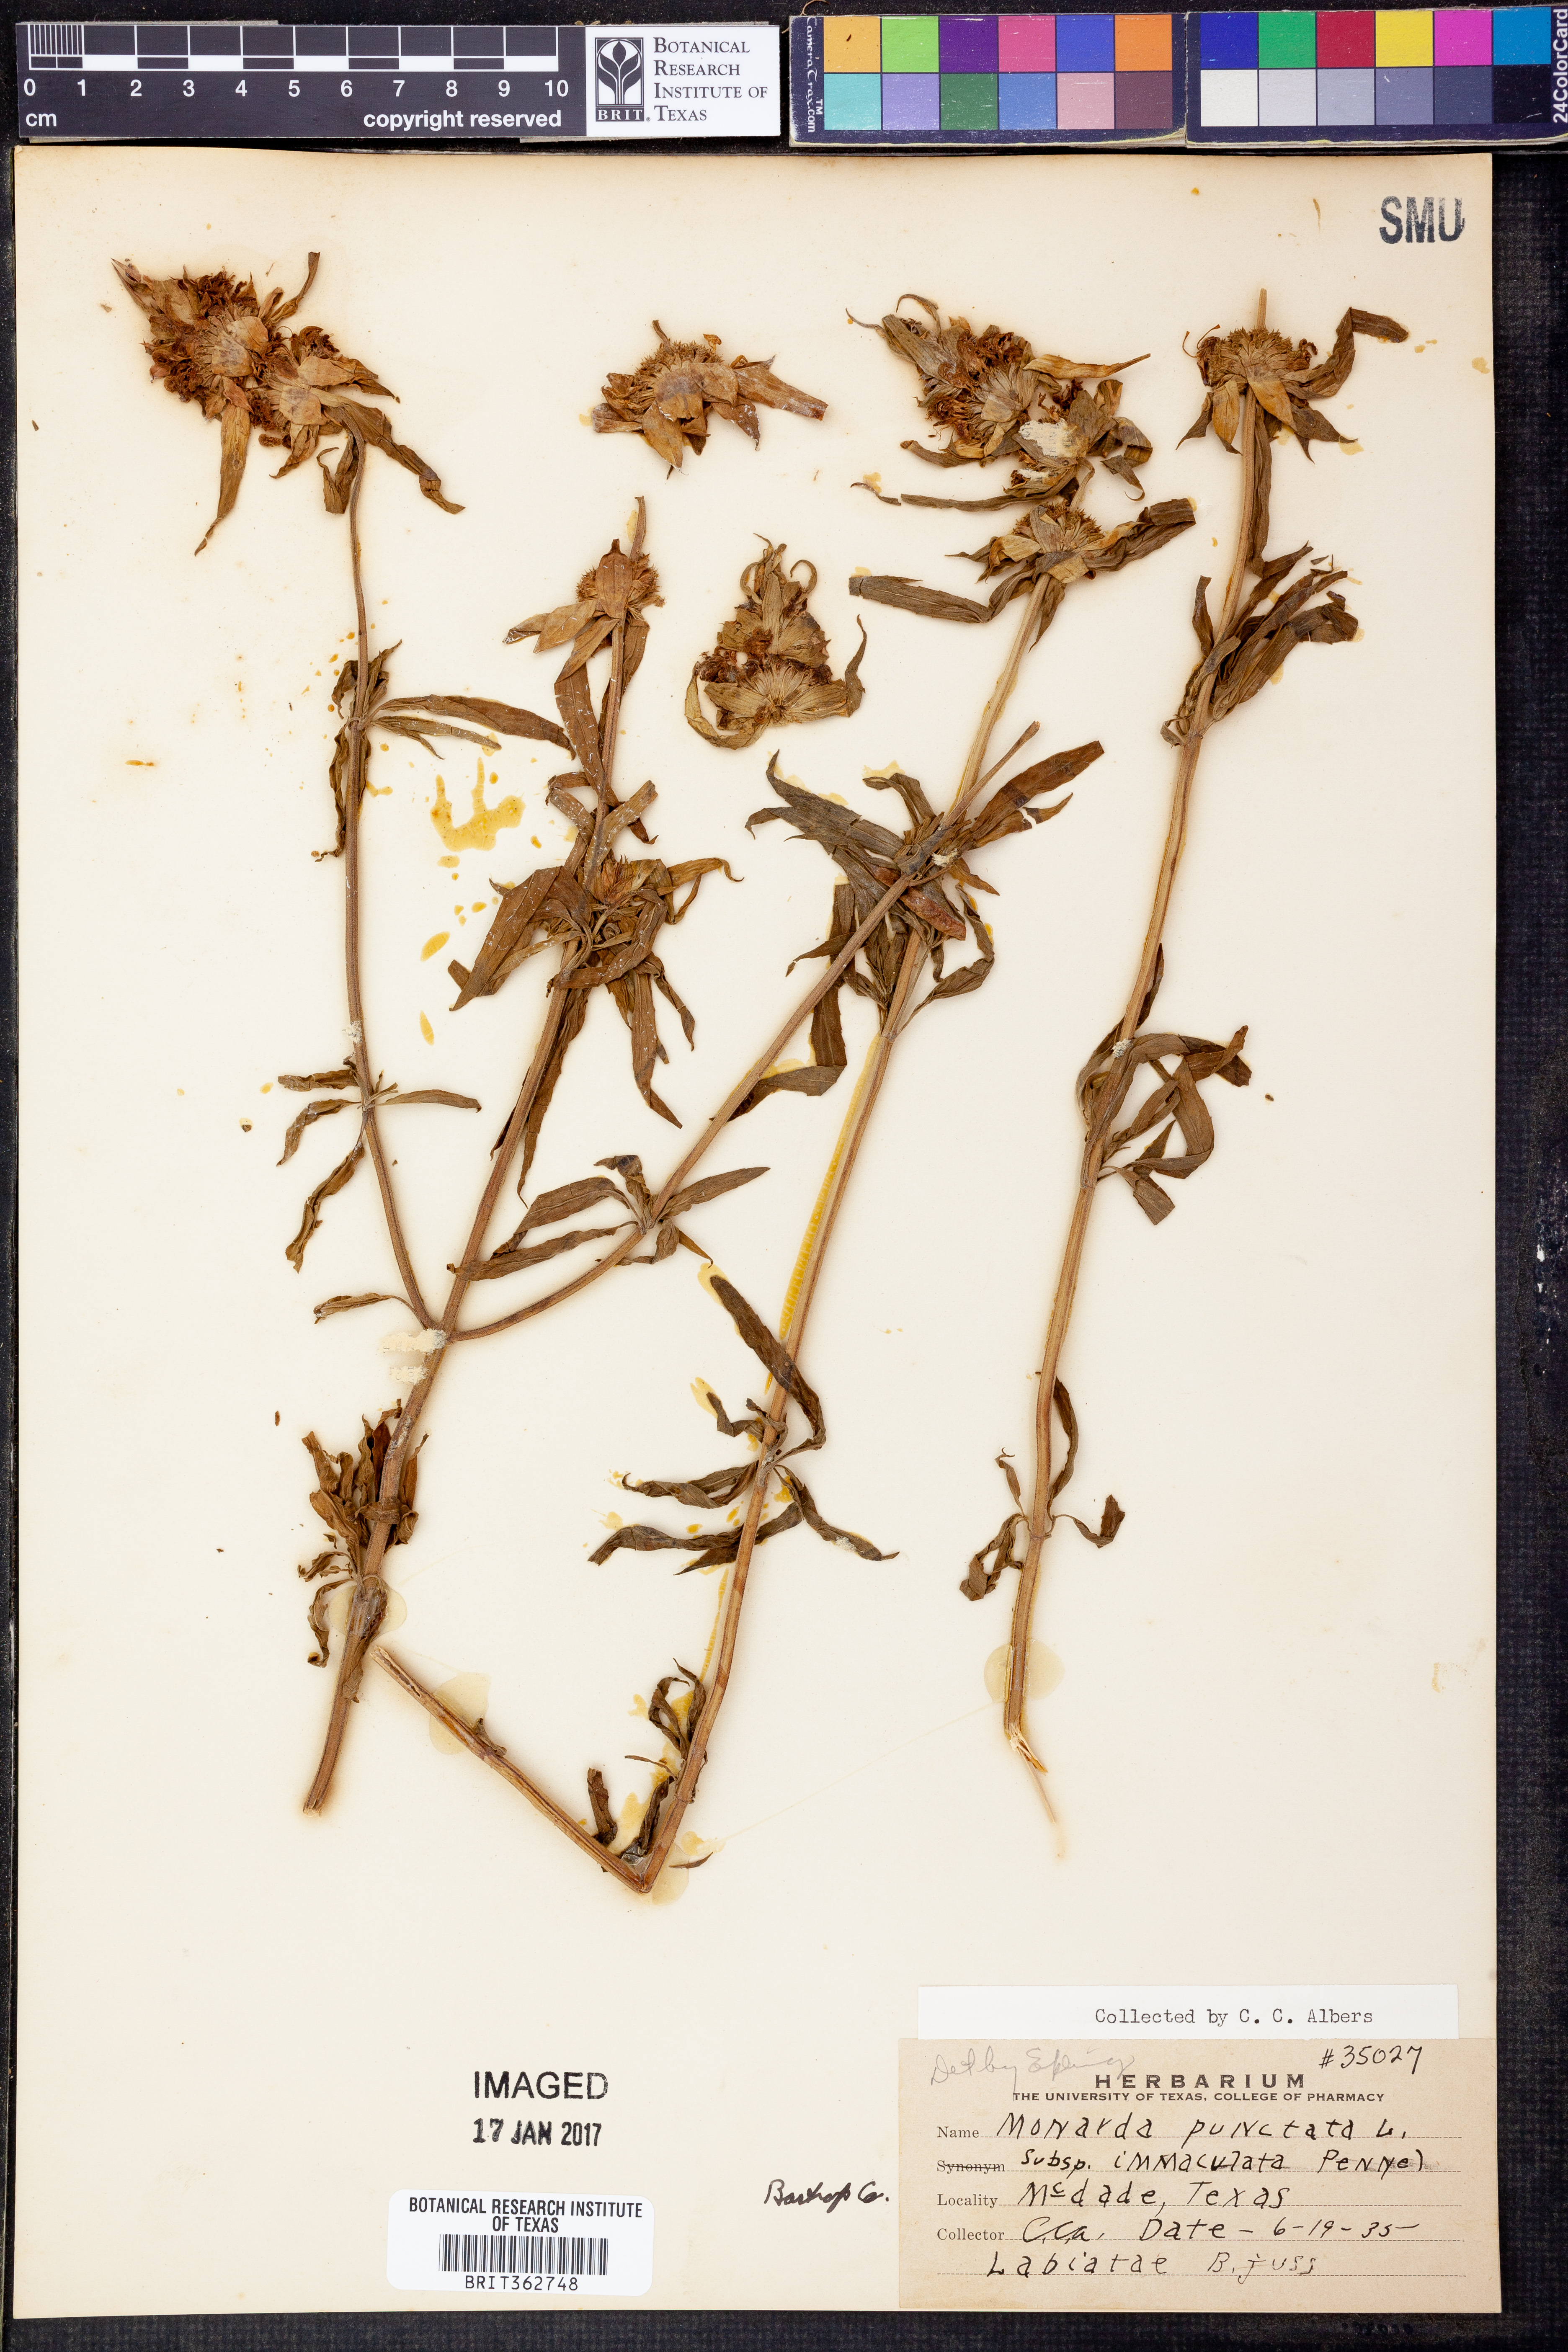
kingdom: Plantae
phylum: Tracheophyta
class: Magnoliopsida
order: Lamiales
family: Lamiaceae
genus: Monarda
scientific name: Monarda punctata
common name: Dotted monarda
